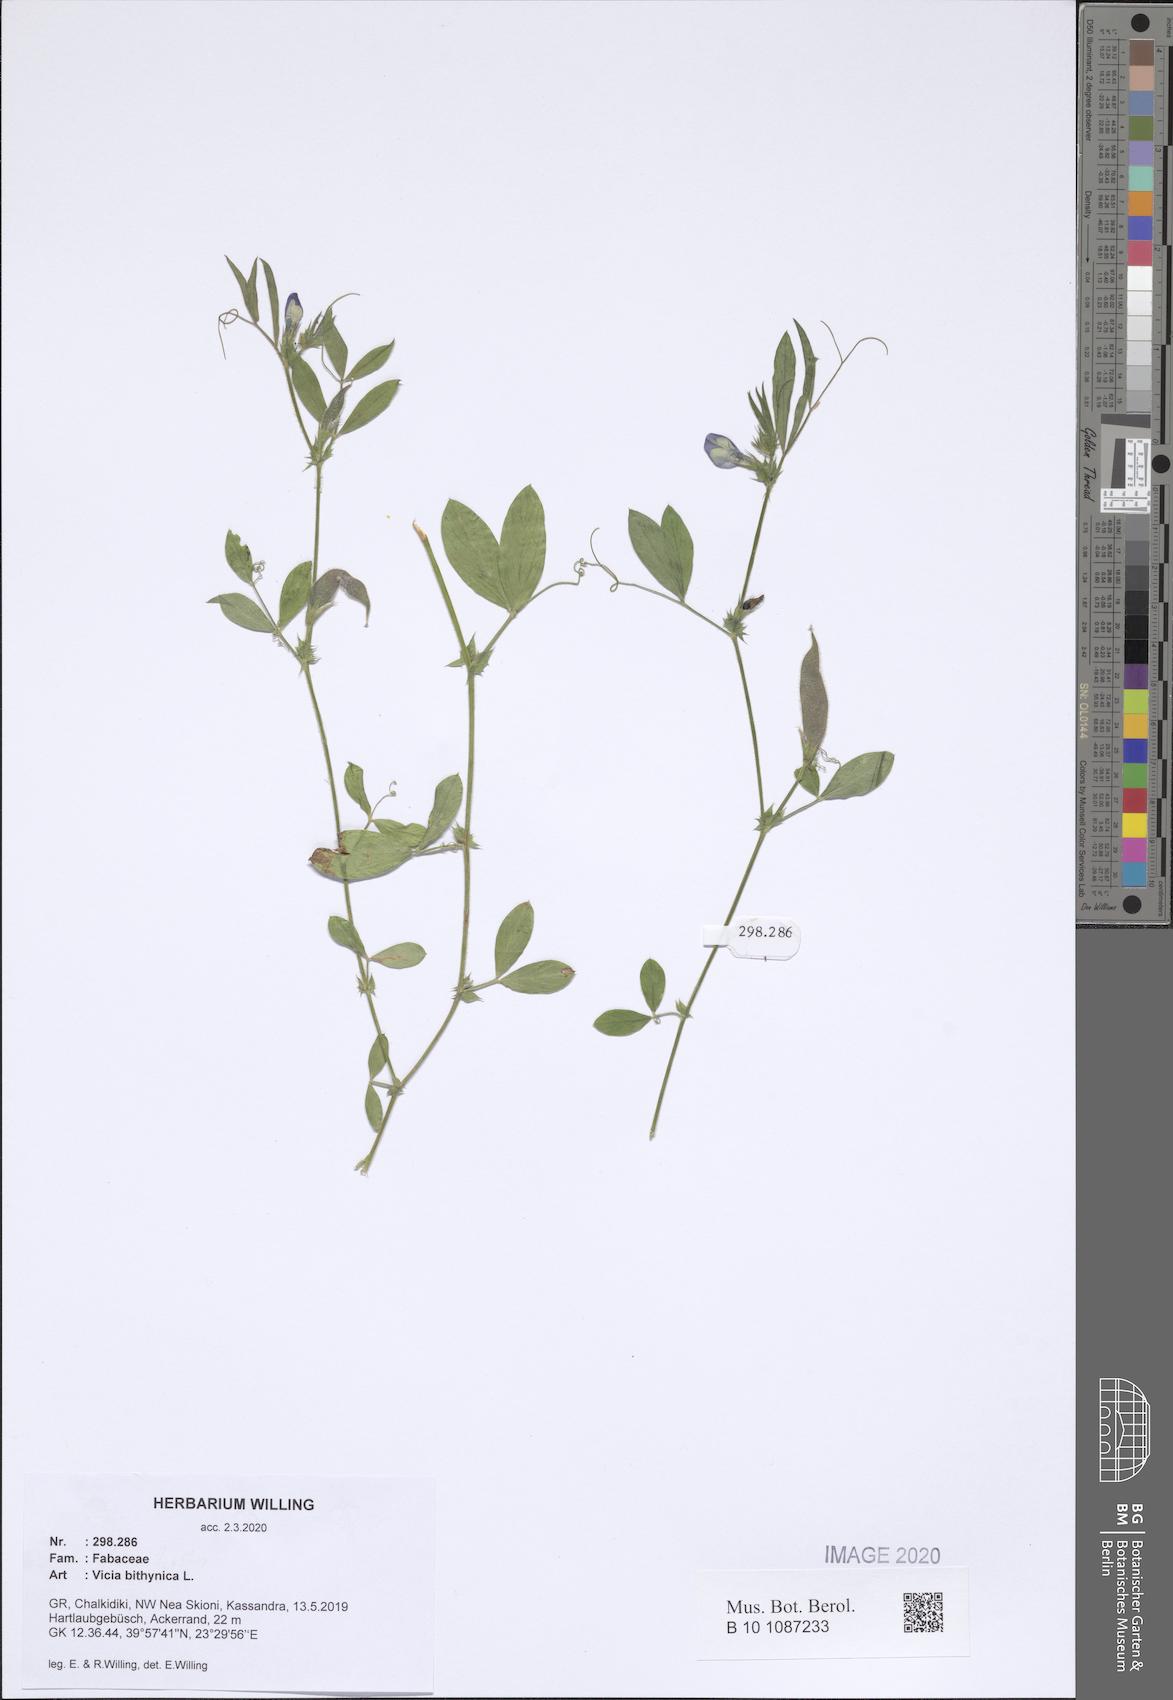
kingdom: Plantae
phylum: Tracheophyta
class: Magnoliopsida
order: Fabales
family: Fabaceae
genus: Vicia
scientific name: Vicia bithynica
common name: Bithynian vetch
